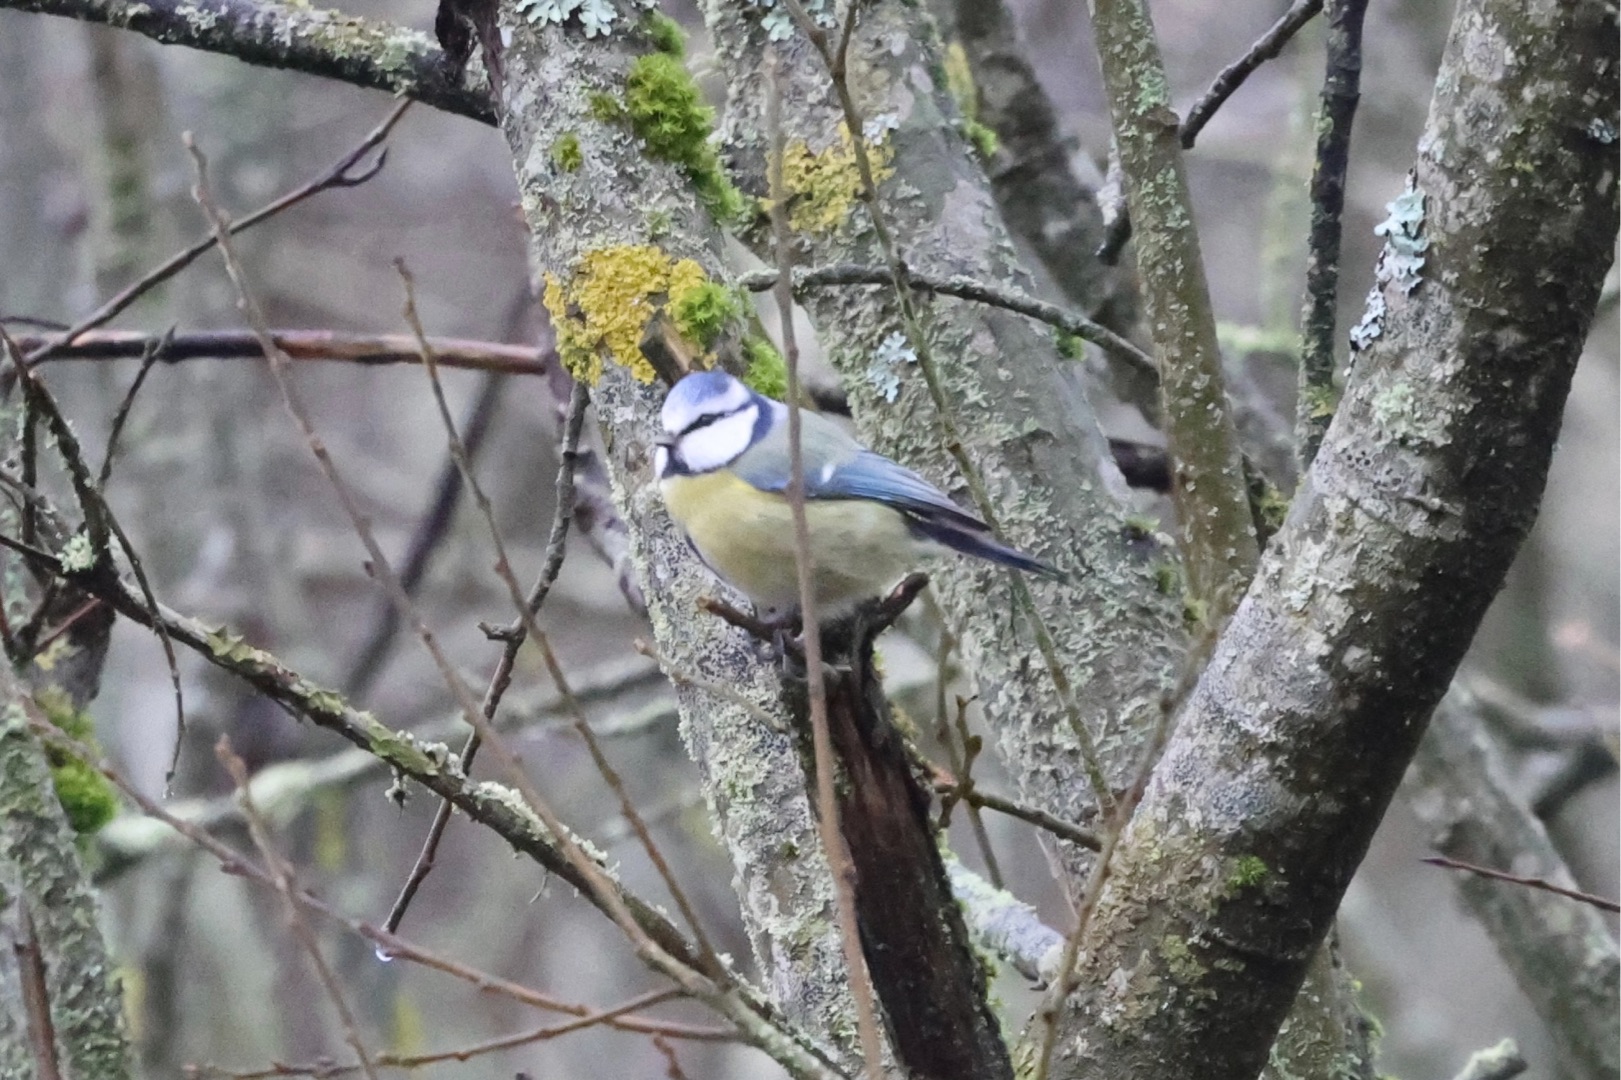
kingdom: Animalia
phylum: Chordata
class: Aves
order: Passeriformes
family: Paridae
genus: Cyanistes
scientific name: Cyanistes caeruleus
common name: Blåmejse
